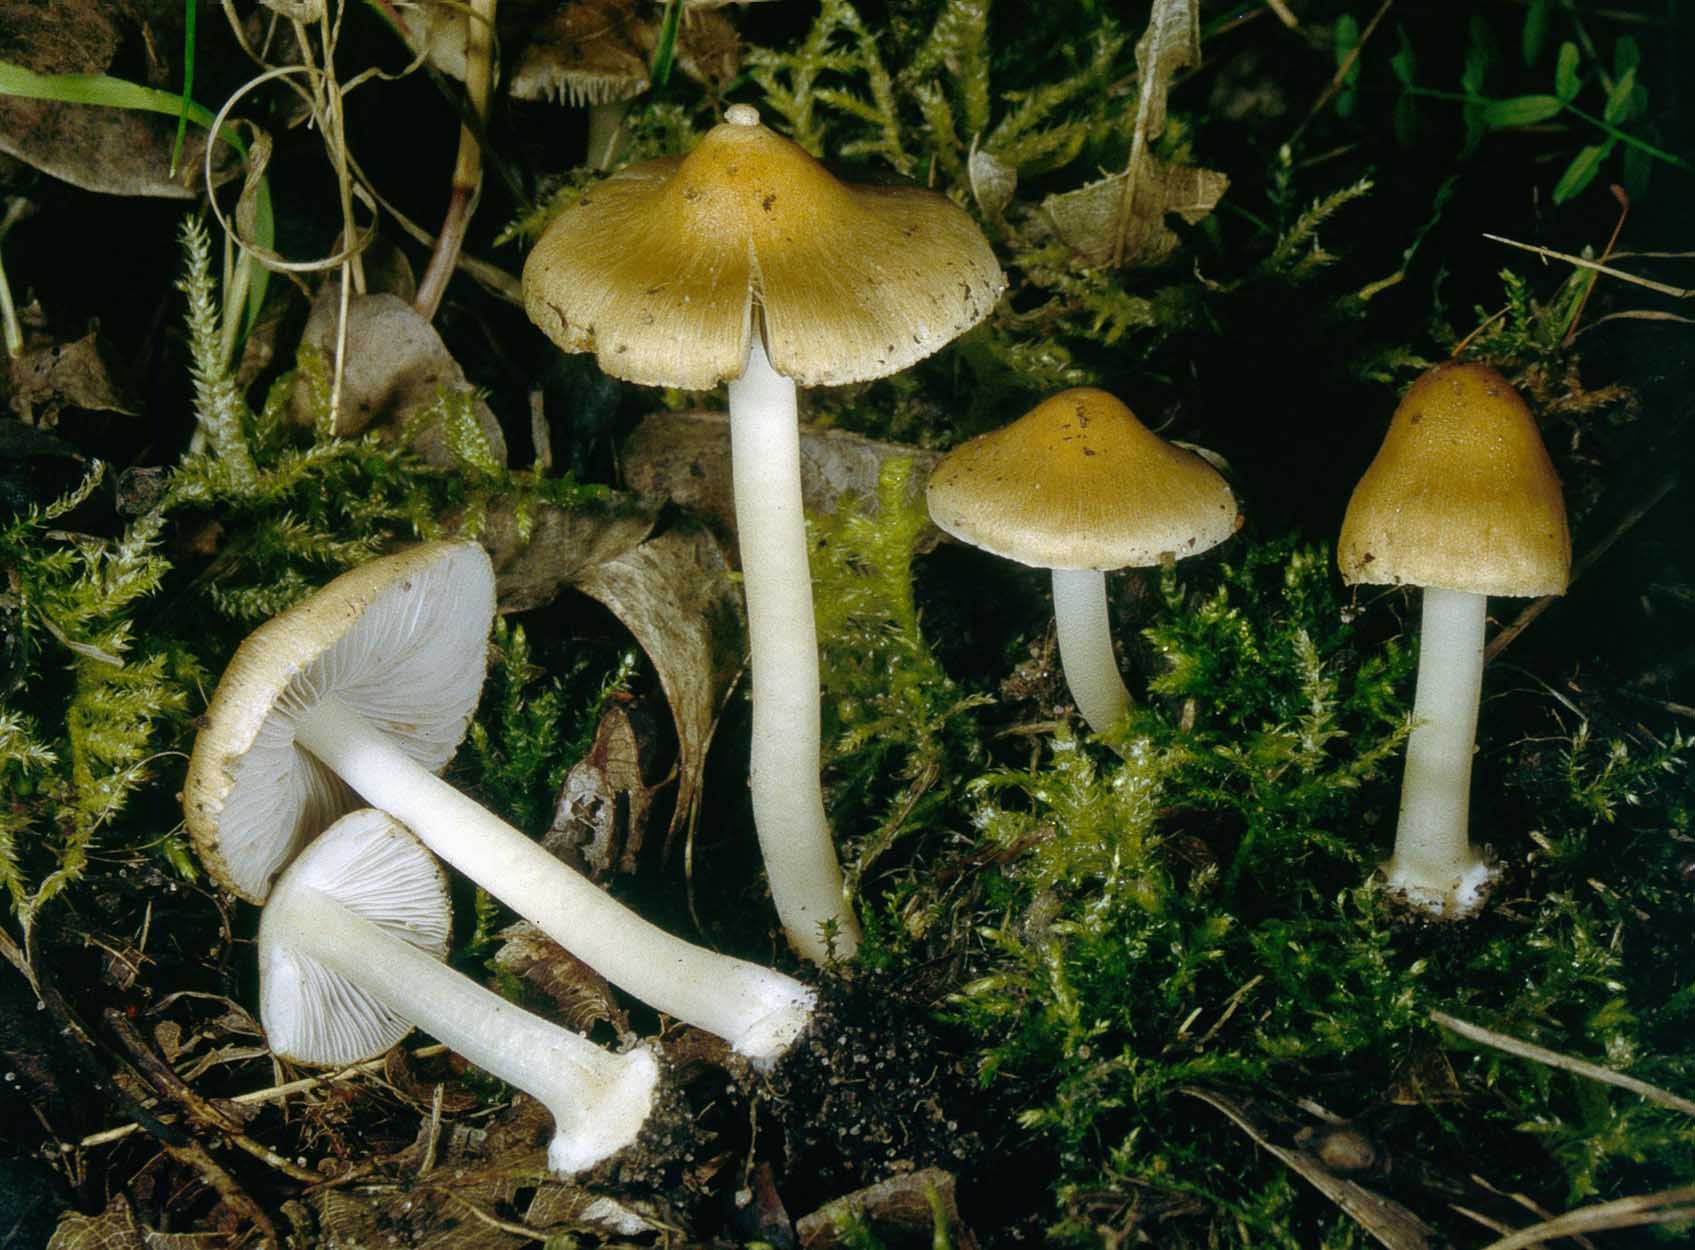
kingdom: Fungi
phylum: Basidiomycota
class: Agaricomycetes
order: Agaricales
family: Inocybaceae
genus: Inocybe
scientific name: Inocybe mixtilis
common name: randknoldet trævlhat
